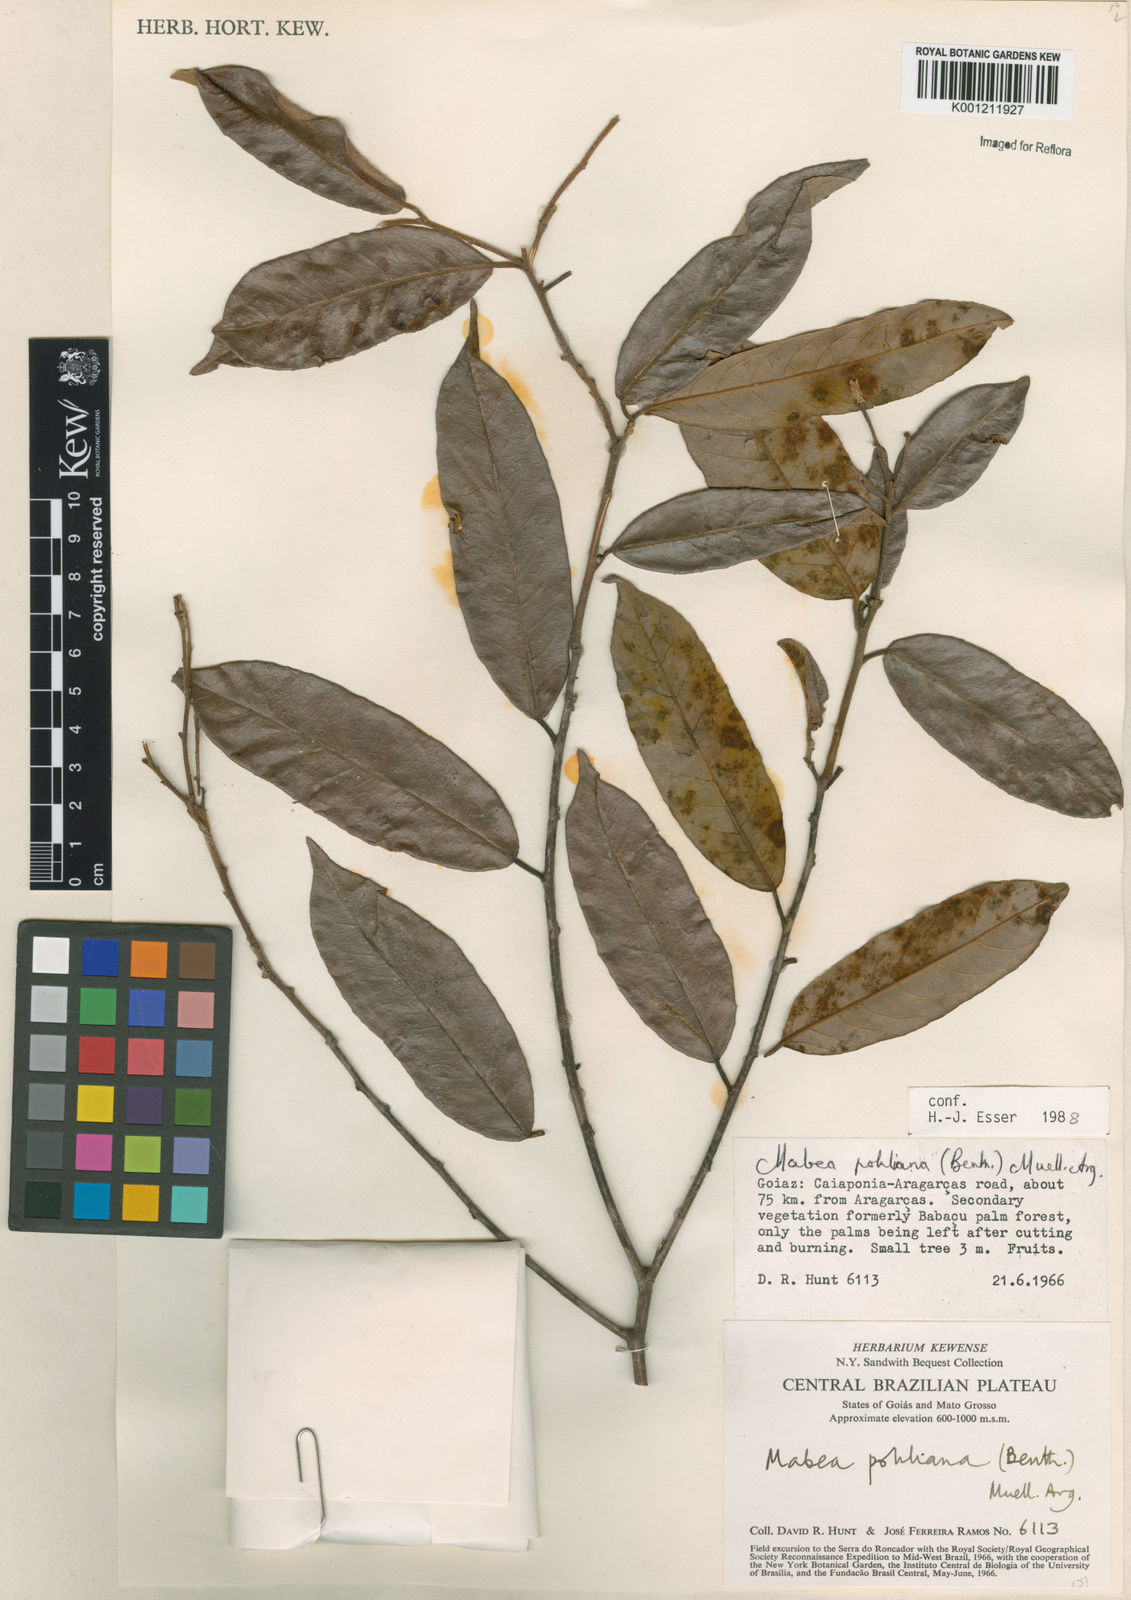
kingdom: Plantae
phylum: Tracheophyta
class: Magnoliopsida
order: Malpighiales
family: Euphorbiaceae
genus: Mabea
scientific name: Mabea
